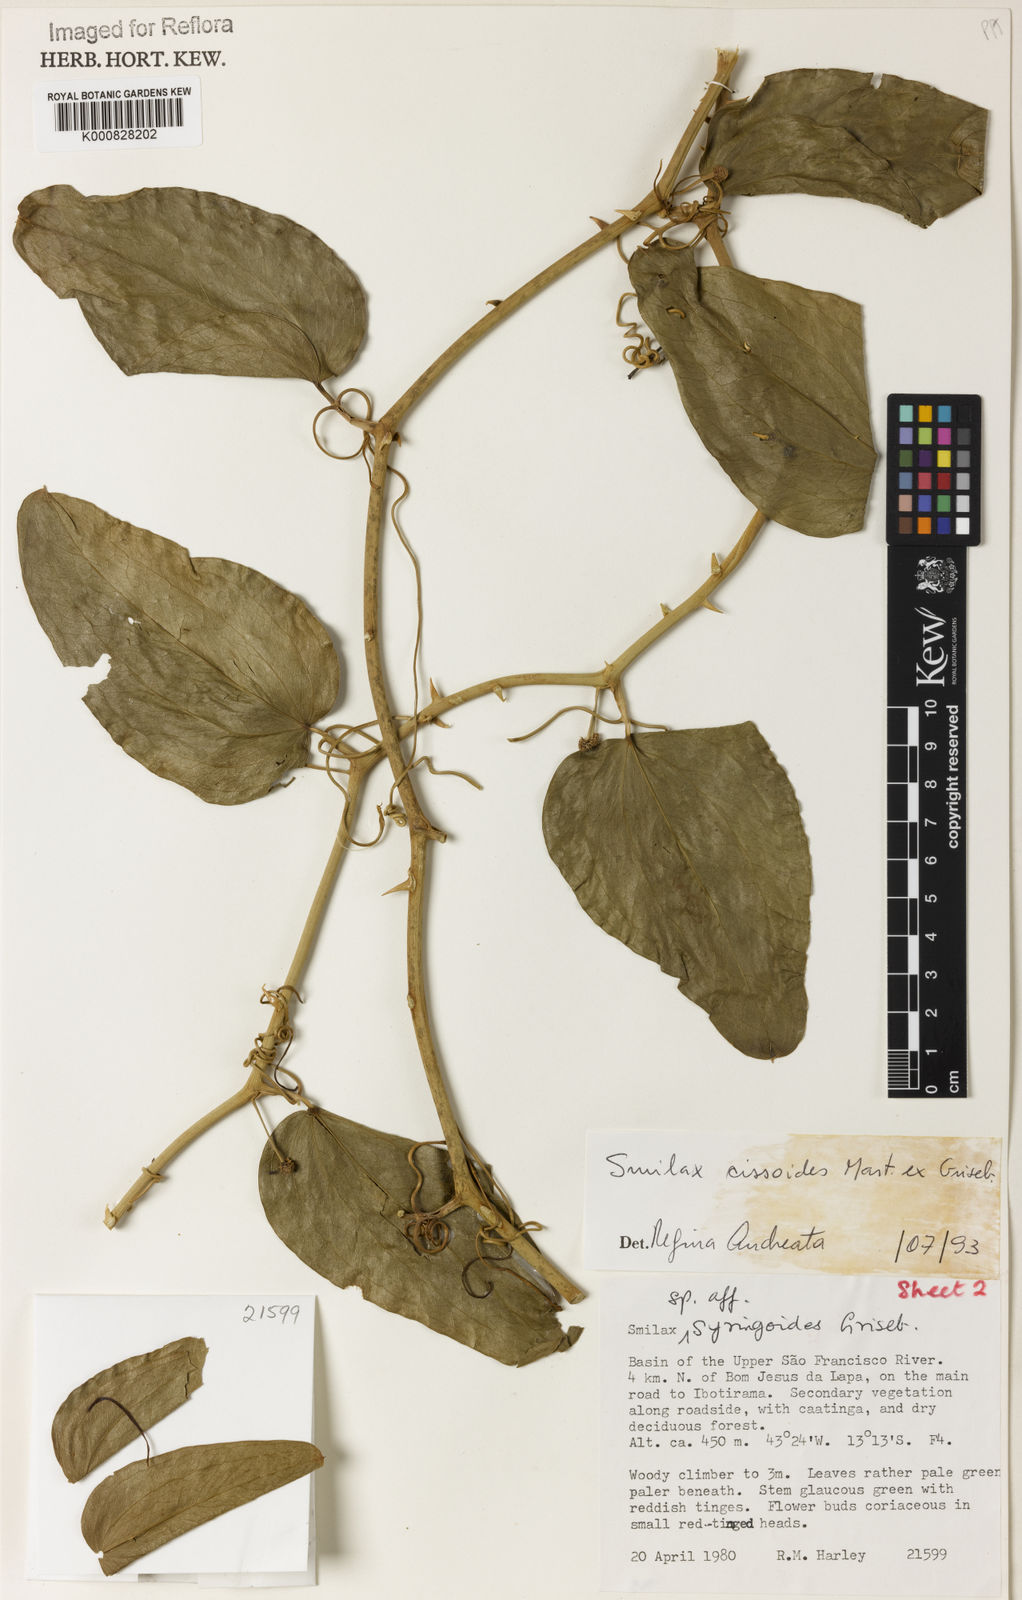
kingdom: Plantae
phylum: Tracheophyta
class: Liliopsida
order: Liliales
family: Smilacaceae
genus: Smilax
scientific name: Smilax
